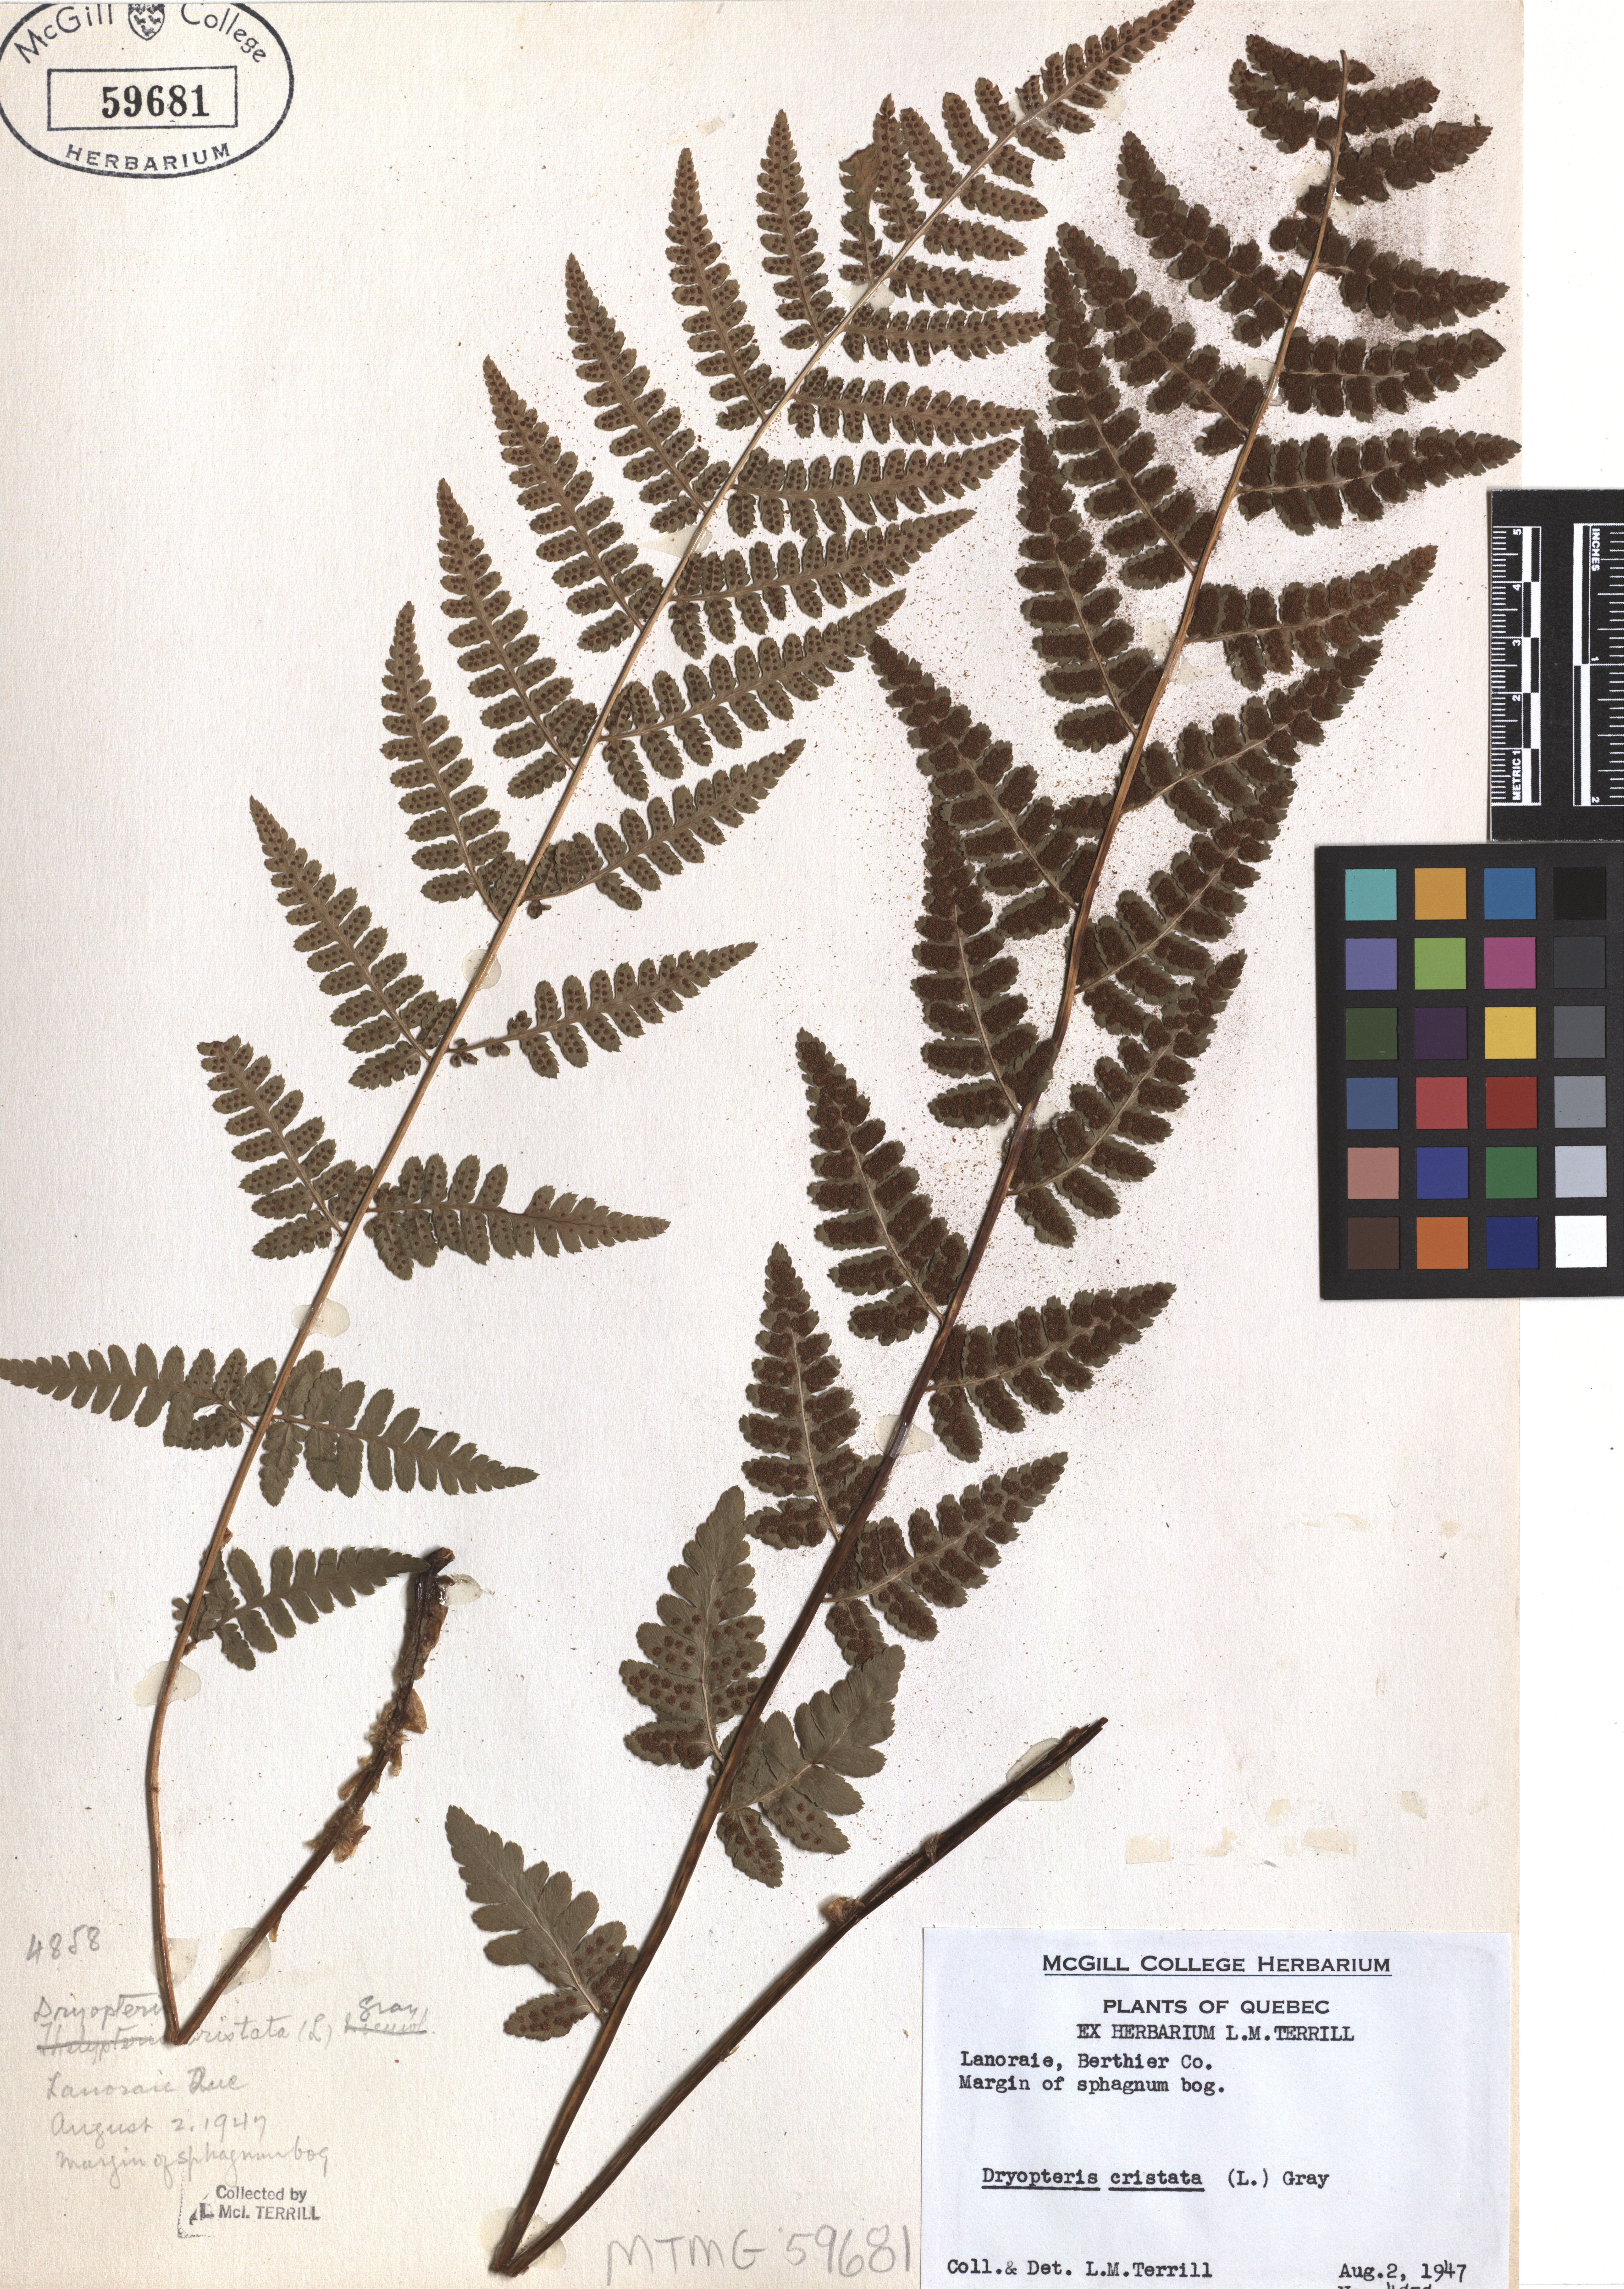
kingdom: Plantae
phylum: Tracheophyta
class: Polypodiopsida
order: Polypodiales
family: Dryopteridaceae
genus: Dryopteris
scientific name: Dryopteris cristata
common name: Crested wood fern
